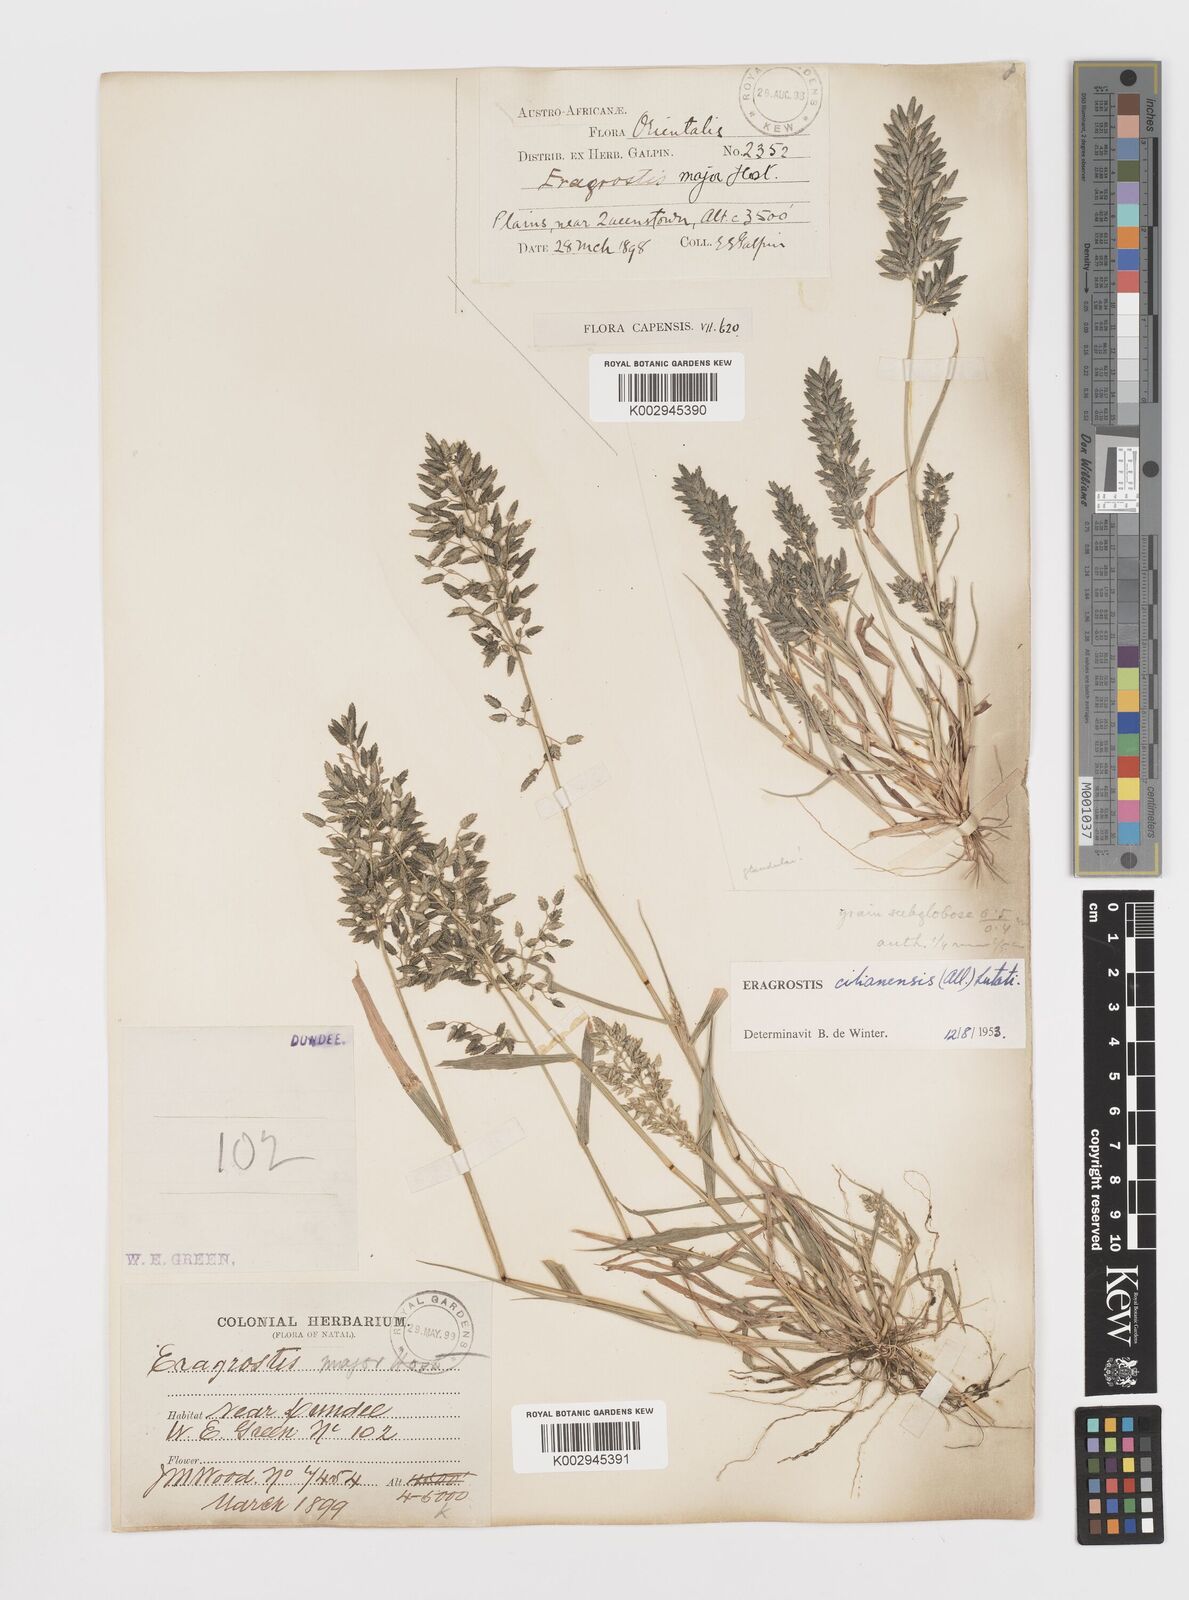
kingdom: Plantae
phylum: Tracheophyta
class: Liliopsida
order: Poales
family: Poaceae
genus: Eragrostis
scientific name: Eragrostis cilianensis
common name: Stinkgrass
